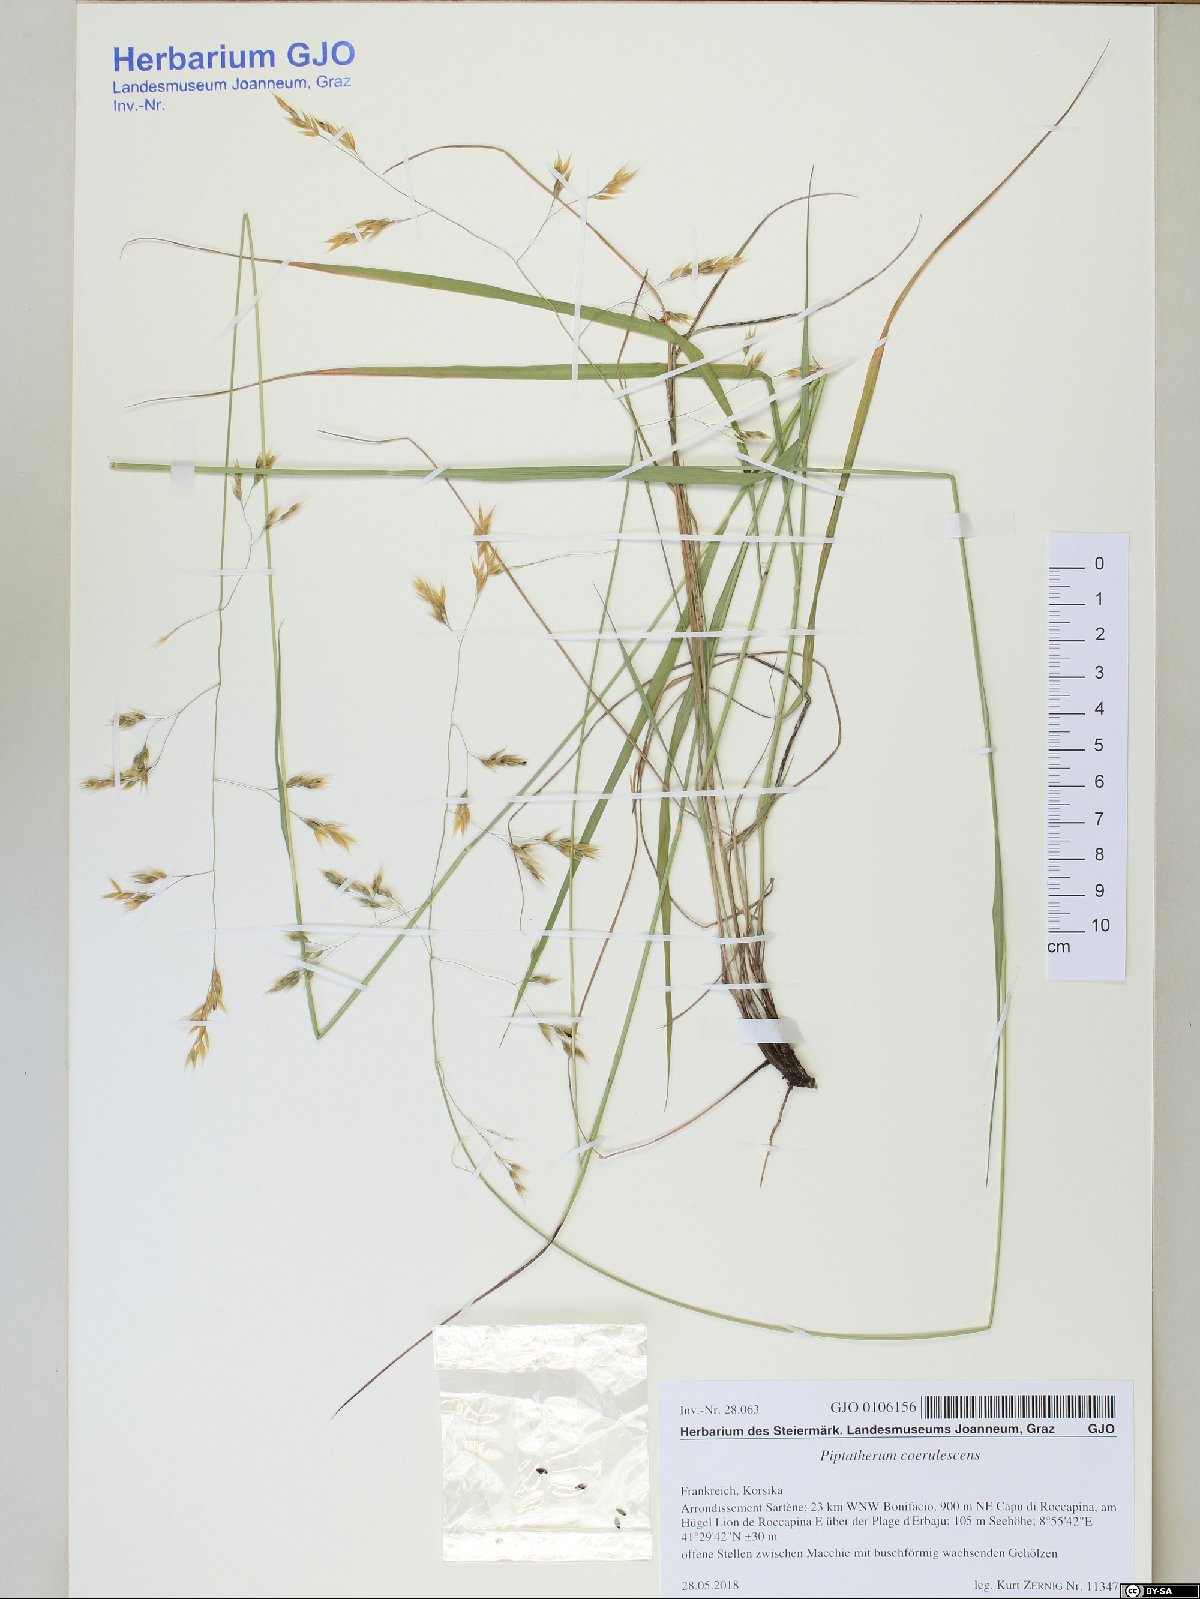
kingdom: Plantae
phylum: Tracheophyta
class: Liliopsida
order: Poales
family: Poaceae
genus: Piptatherum
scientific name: Piptatherum coerulescens
